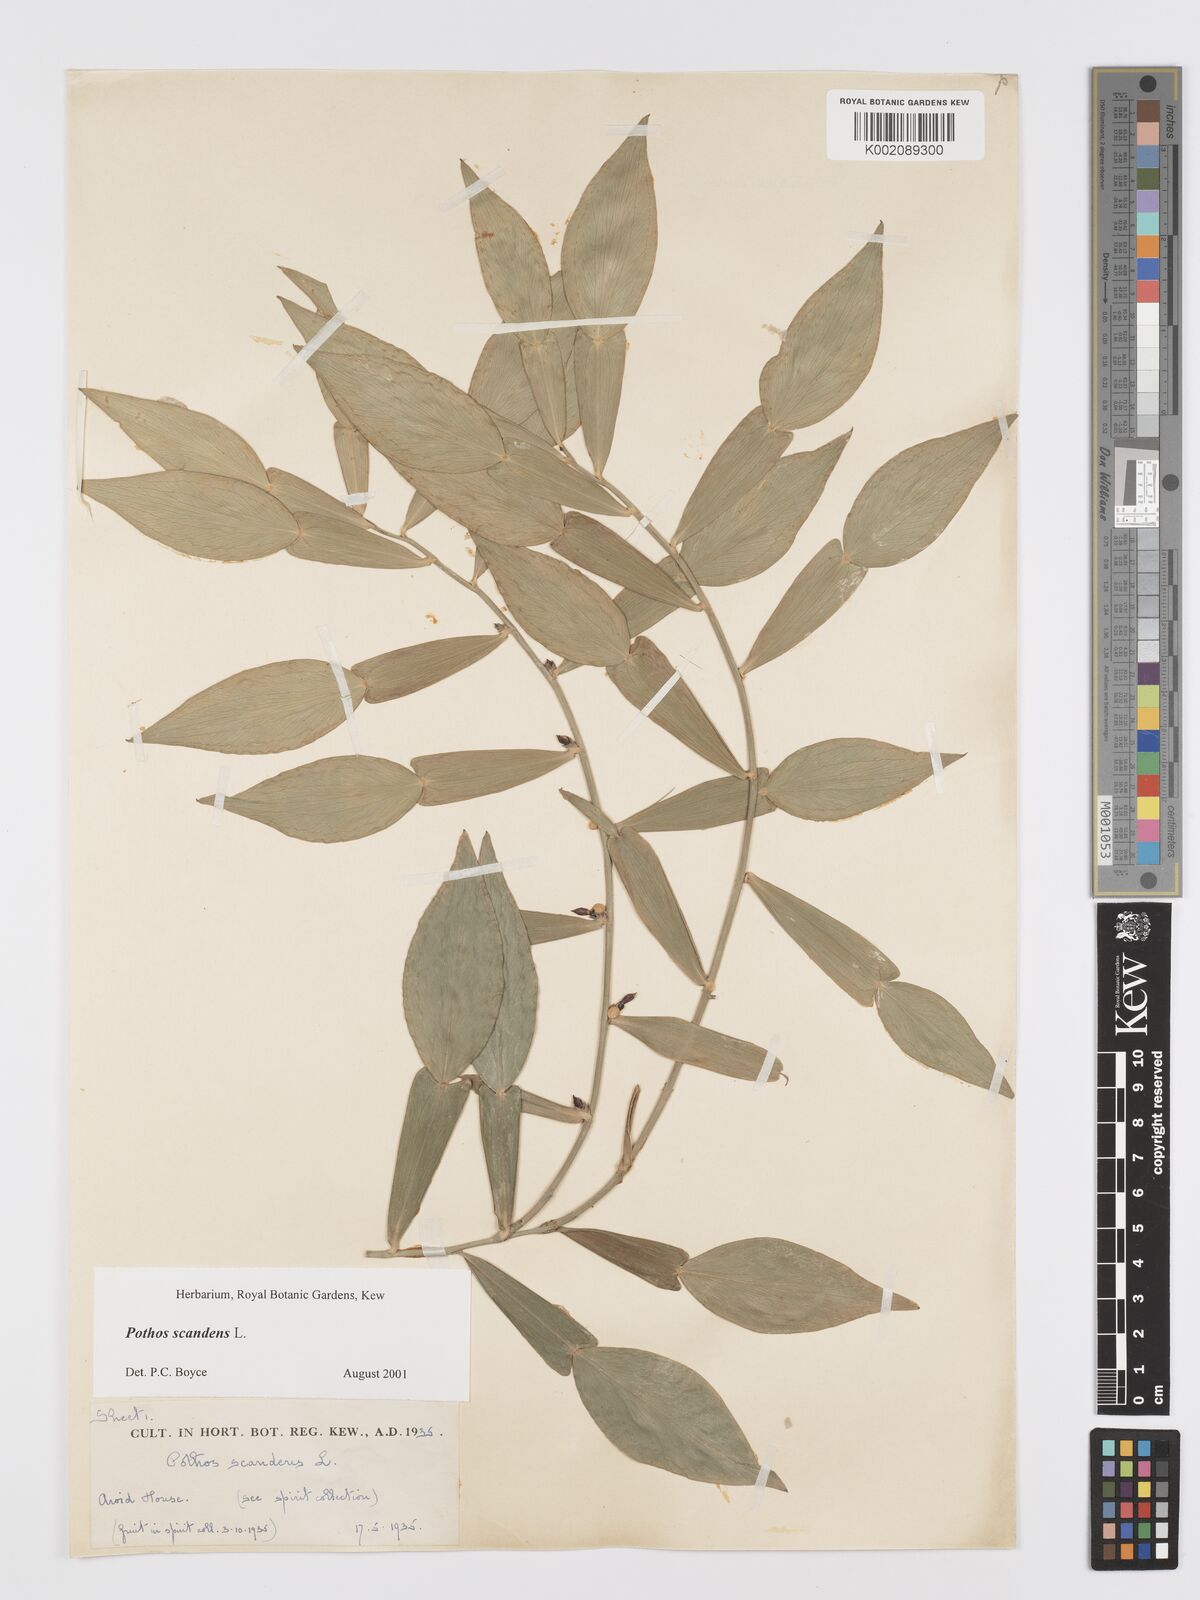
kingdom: Plantae
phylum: Tracheophyta
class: Liliopsida
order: Alismatales
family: Araceae
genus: Pothos
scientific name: Pothos scandens
